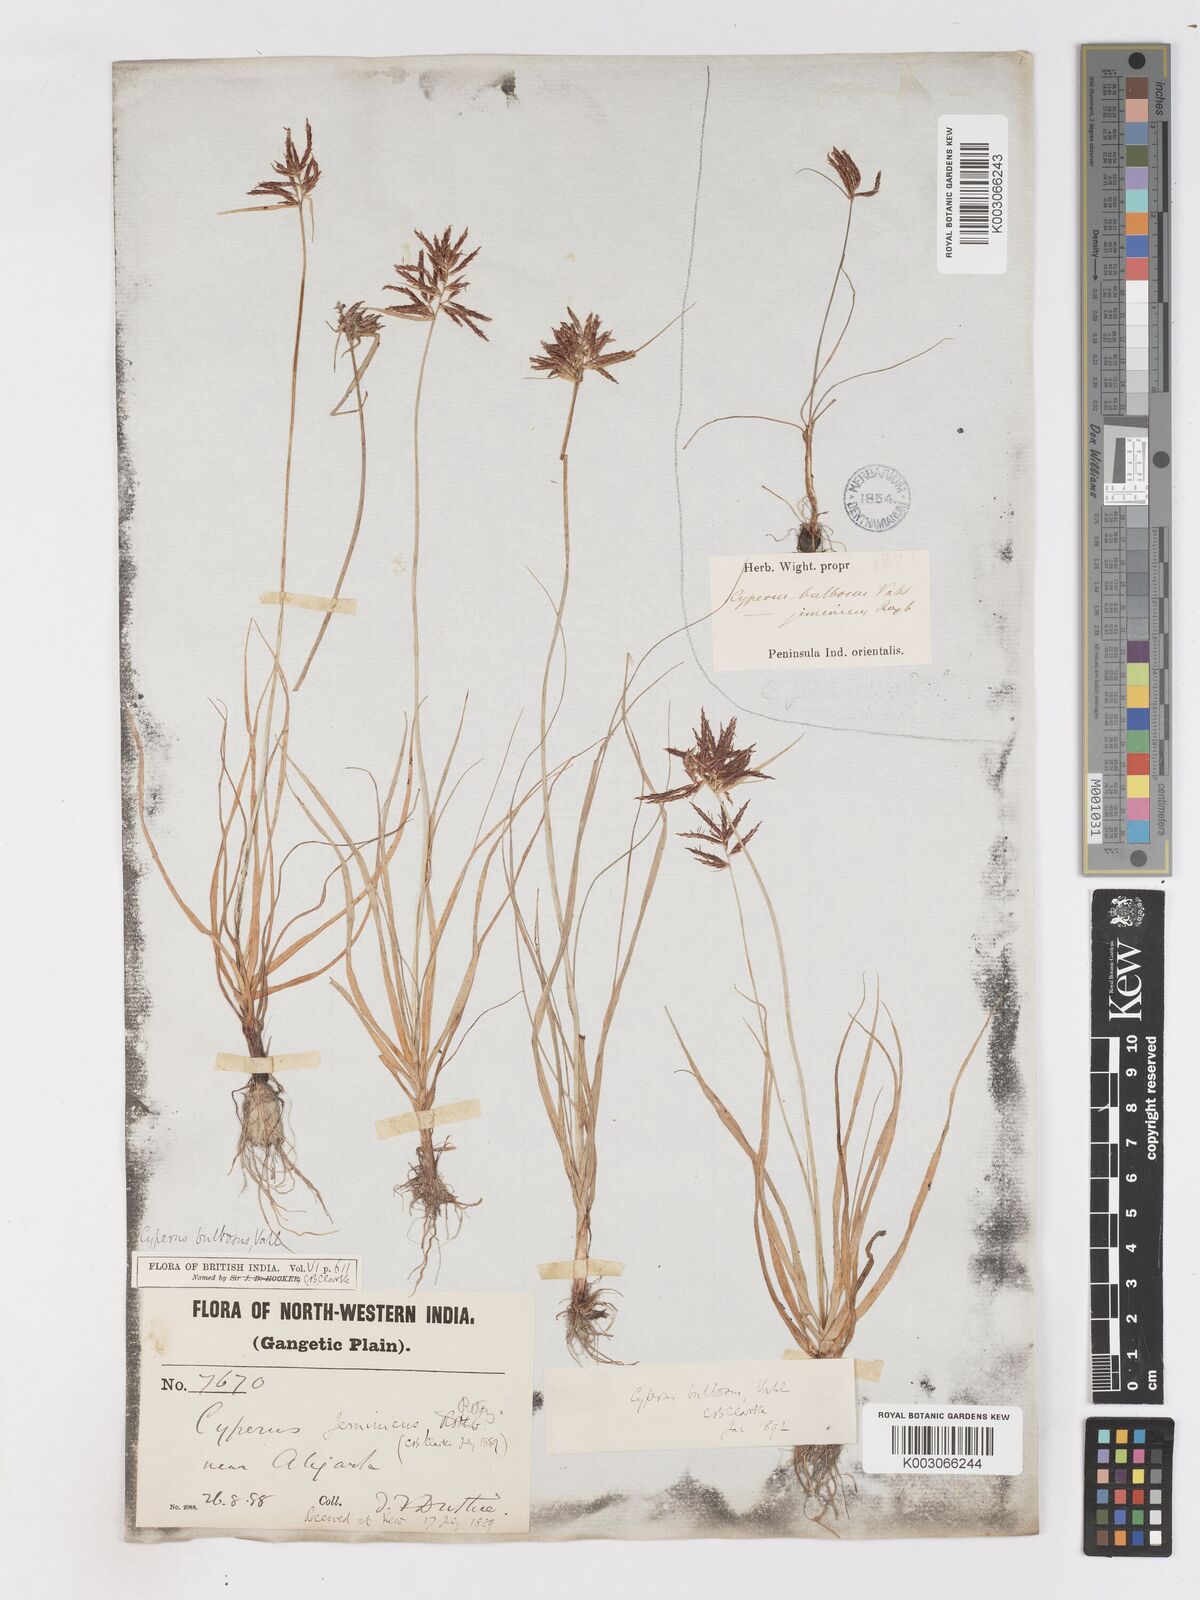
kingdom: Plantae
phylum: Tracheophyta
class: Liliopsida
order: Poales
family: Cyperaceae
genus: Cyperus
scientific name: Cyperus bulbosus
